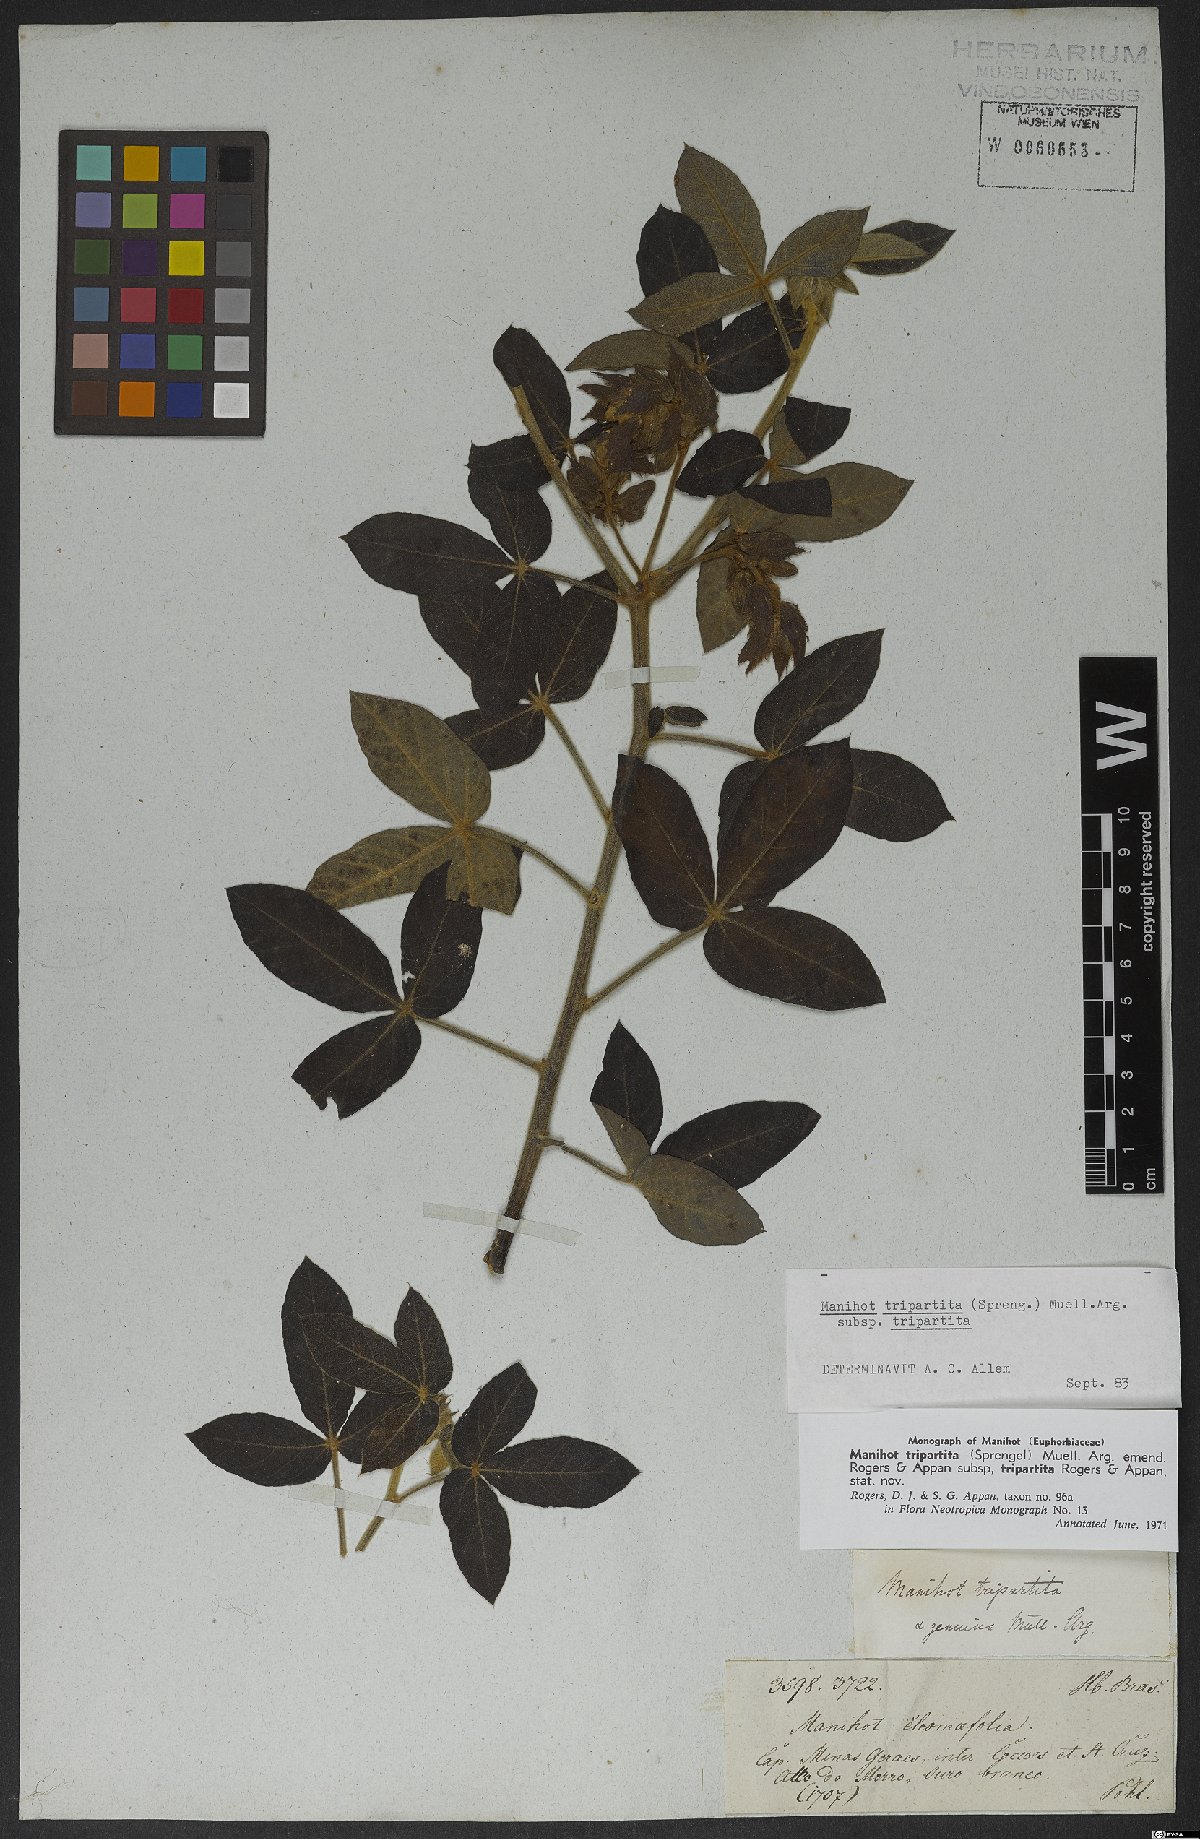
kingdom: Plantae
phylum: Tracheophyta
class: Magnoliopsida
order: Malpighiales
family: Euphorbiaceae
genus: Manihot
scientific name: Manihot tripartita
